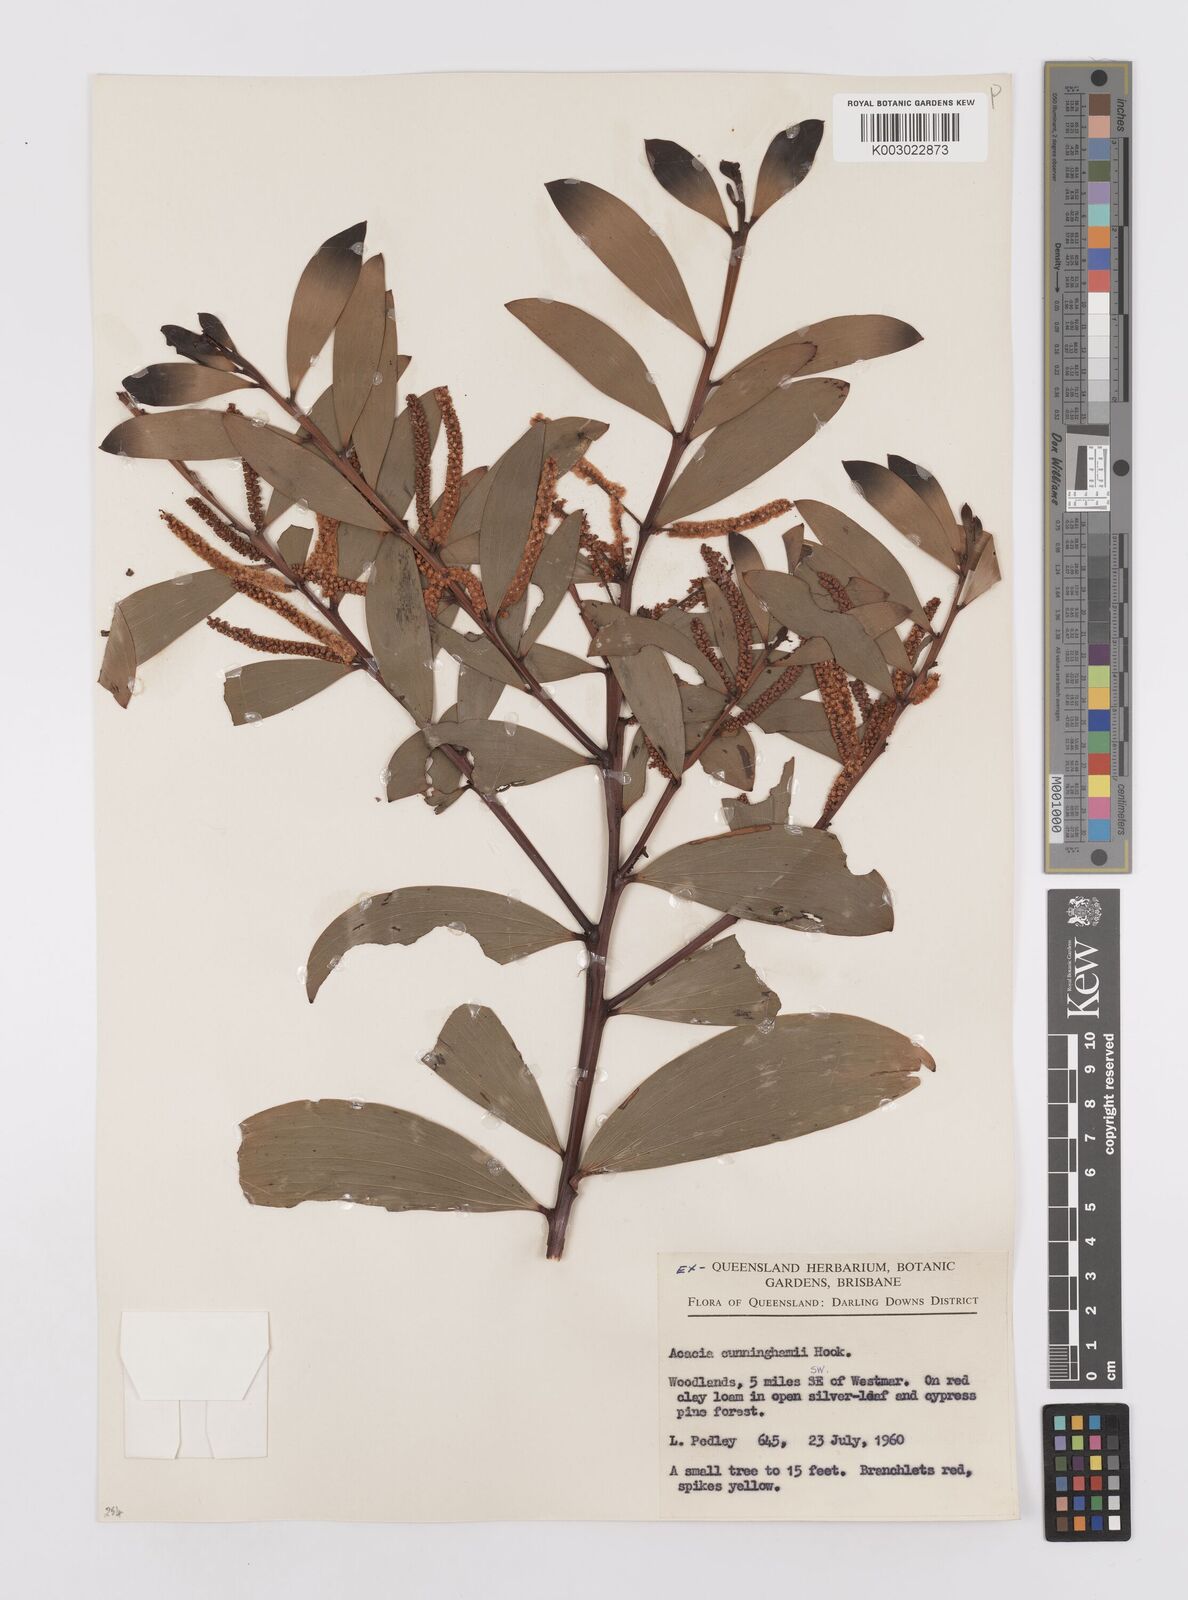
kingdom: Plantae
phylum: Tracheophyta
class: Magnoliopsida
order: Fabales
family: Fabaceae
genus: Acacia
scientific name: Acacia longispicata
